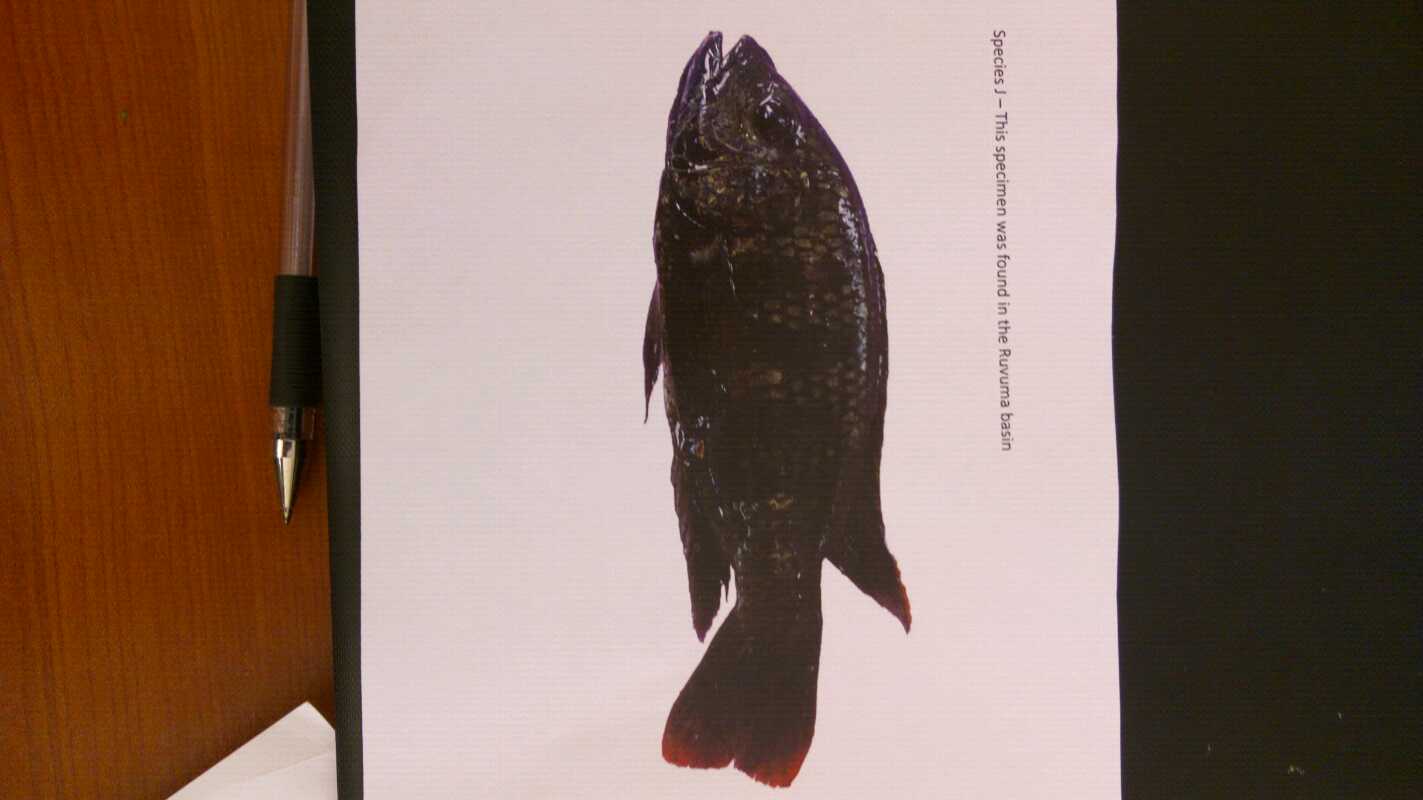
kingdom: Animalia
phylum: Chordata
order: Perciformes
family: Cichlidae
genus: Oreochromis
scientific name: Oreochromis shiranus
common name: Chilwa tilapia
